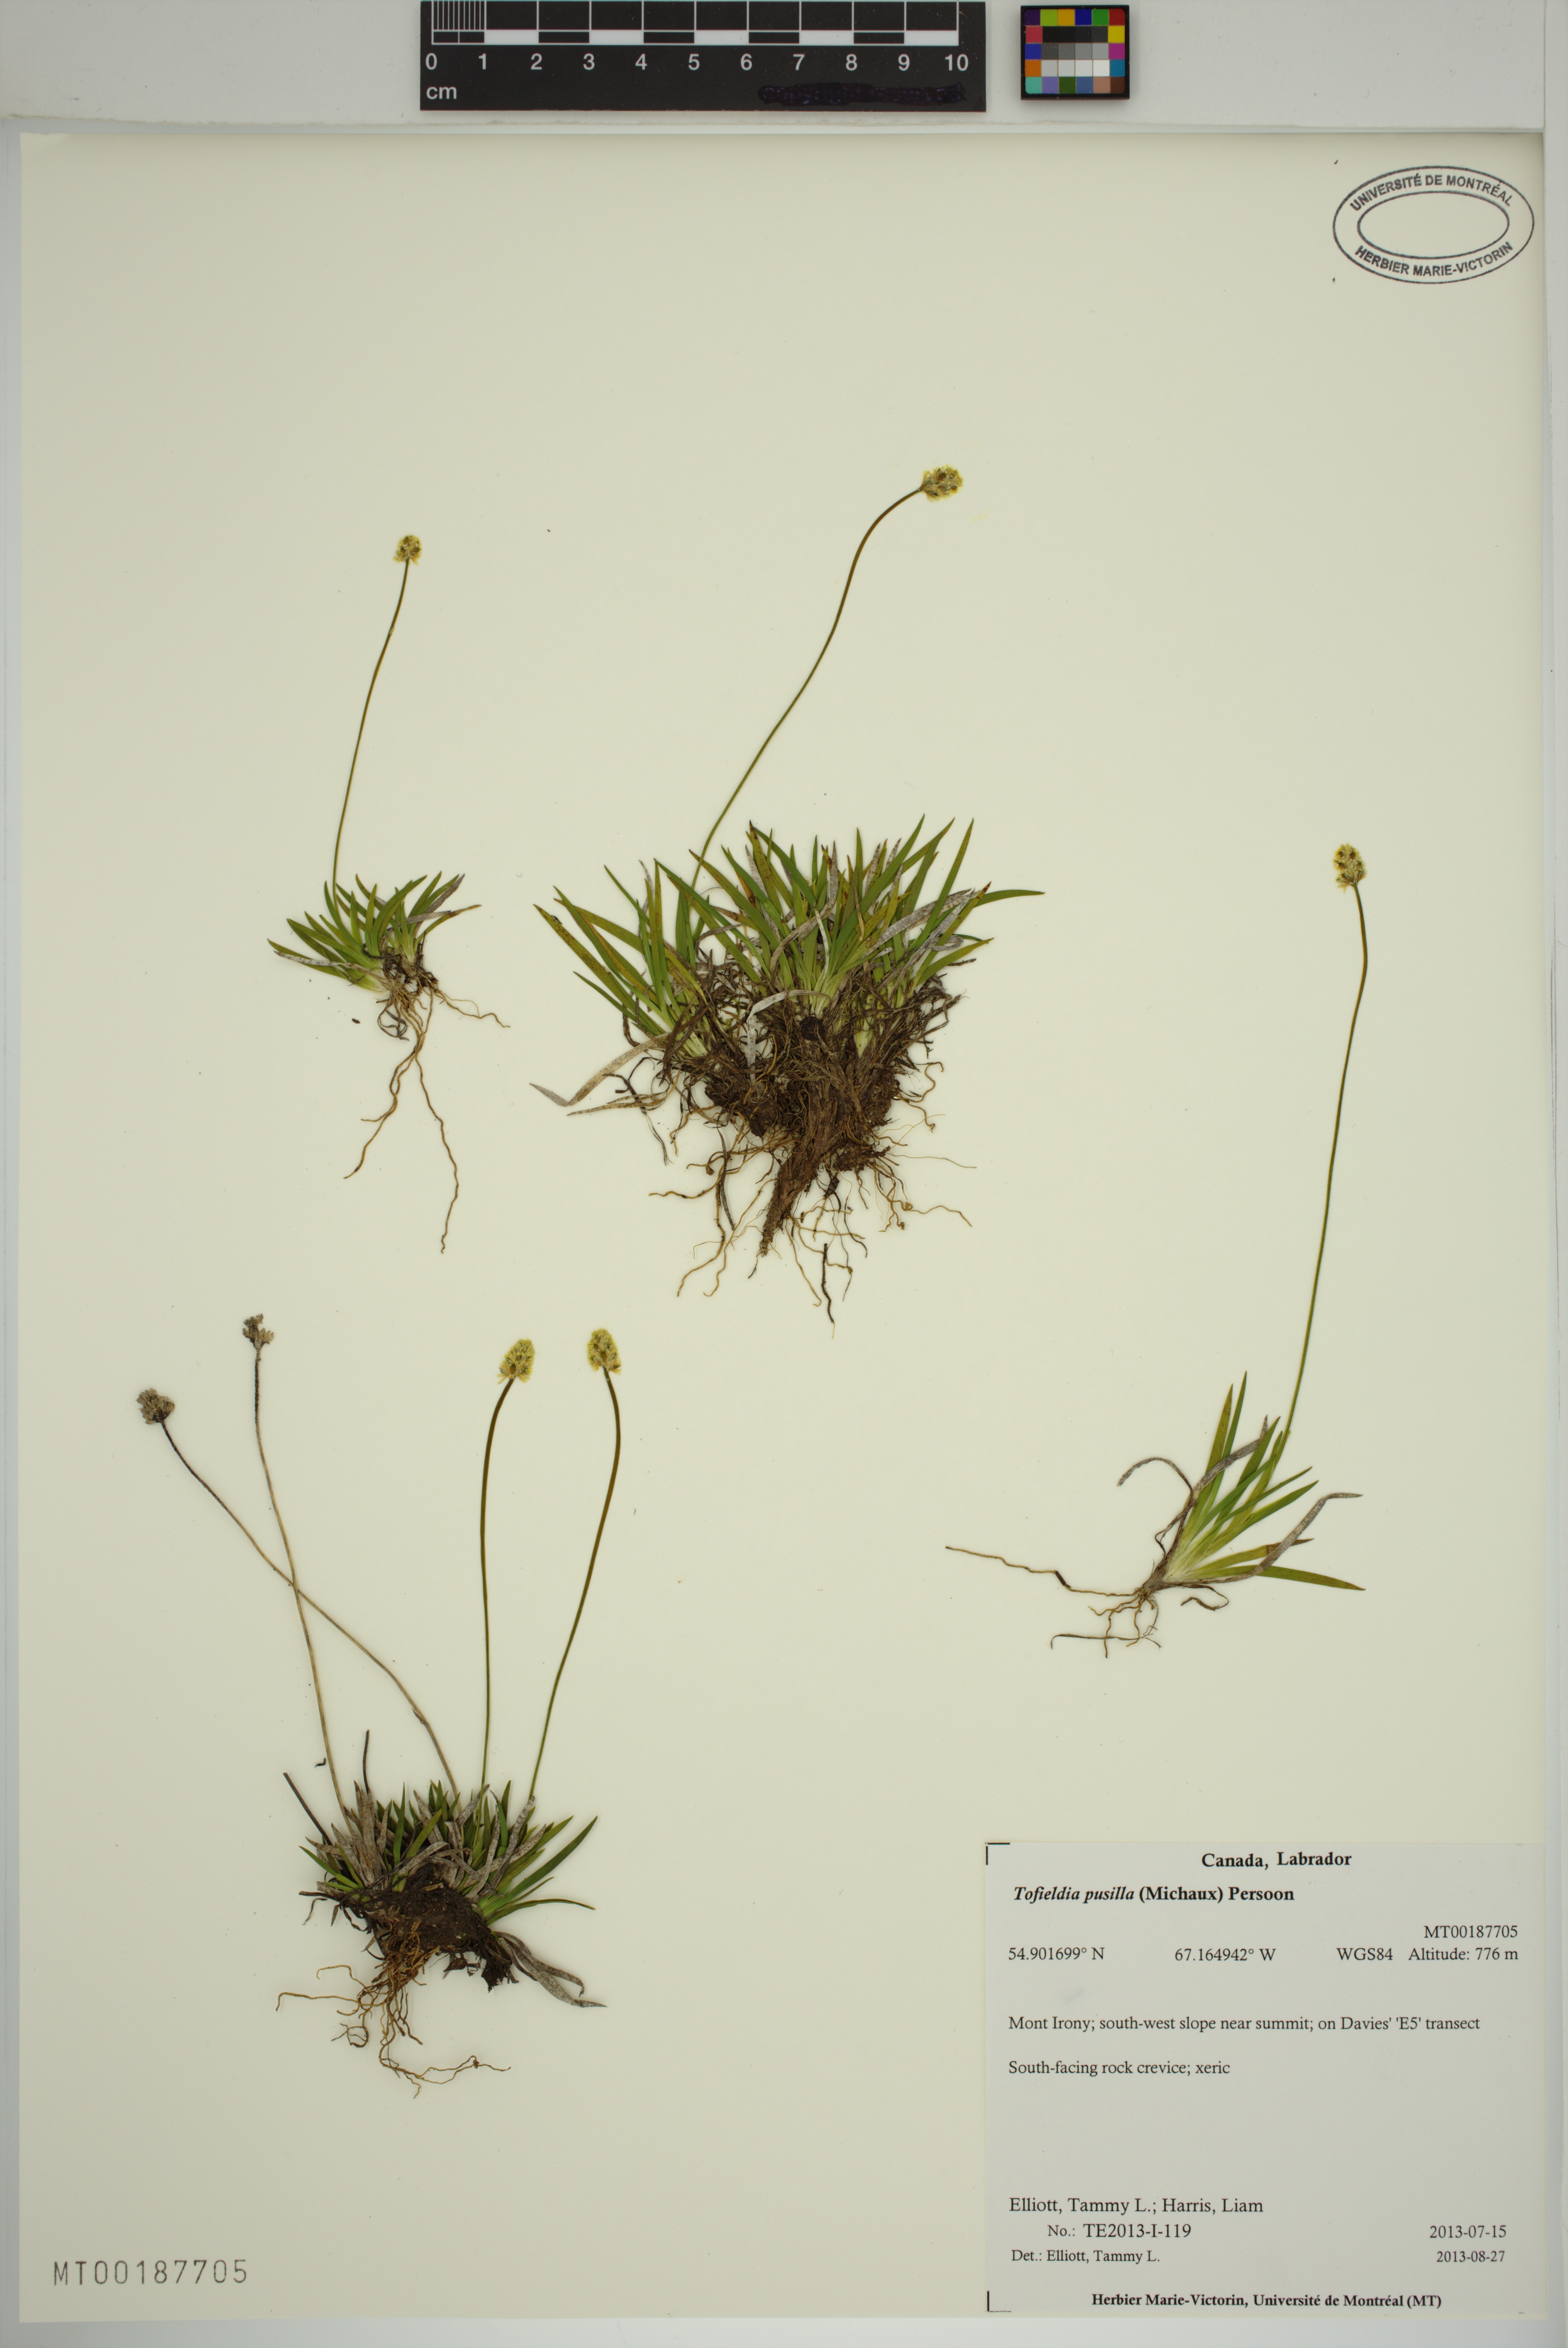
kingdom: Plantae
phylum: Tracheophyta
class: Liliopsida
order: Alismatales
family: Tofieldiaceae
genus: Tofieldia
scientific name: Tofieldia pusilla
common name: Scottish false asphodel
